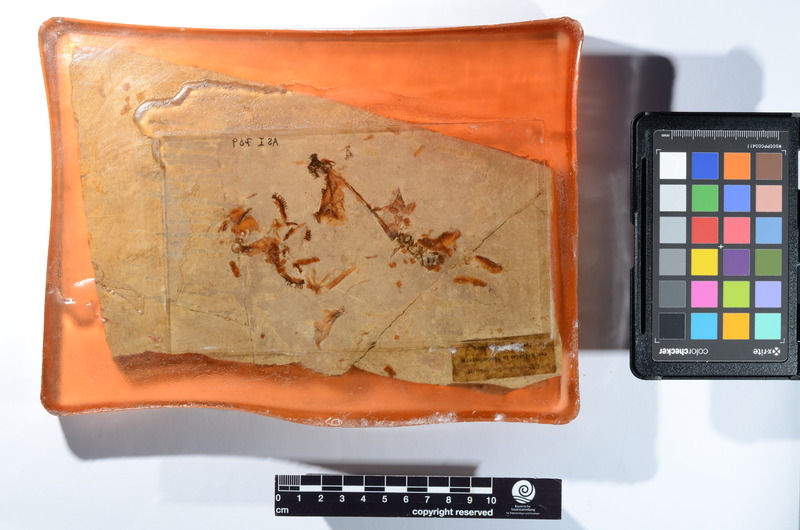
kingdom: Animalia
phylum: Chordata
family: Macrosemiidae
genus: Macrosemius
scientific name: Macrosemius rostratus
